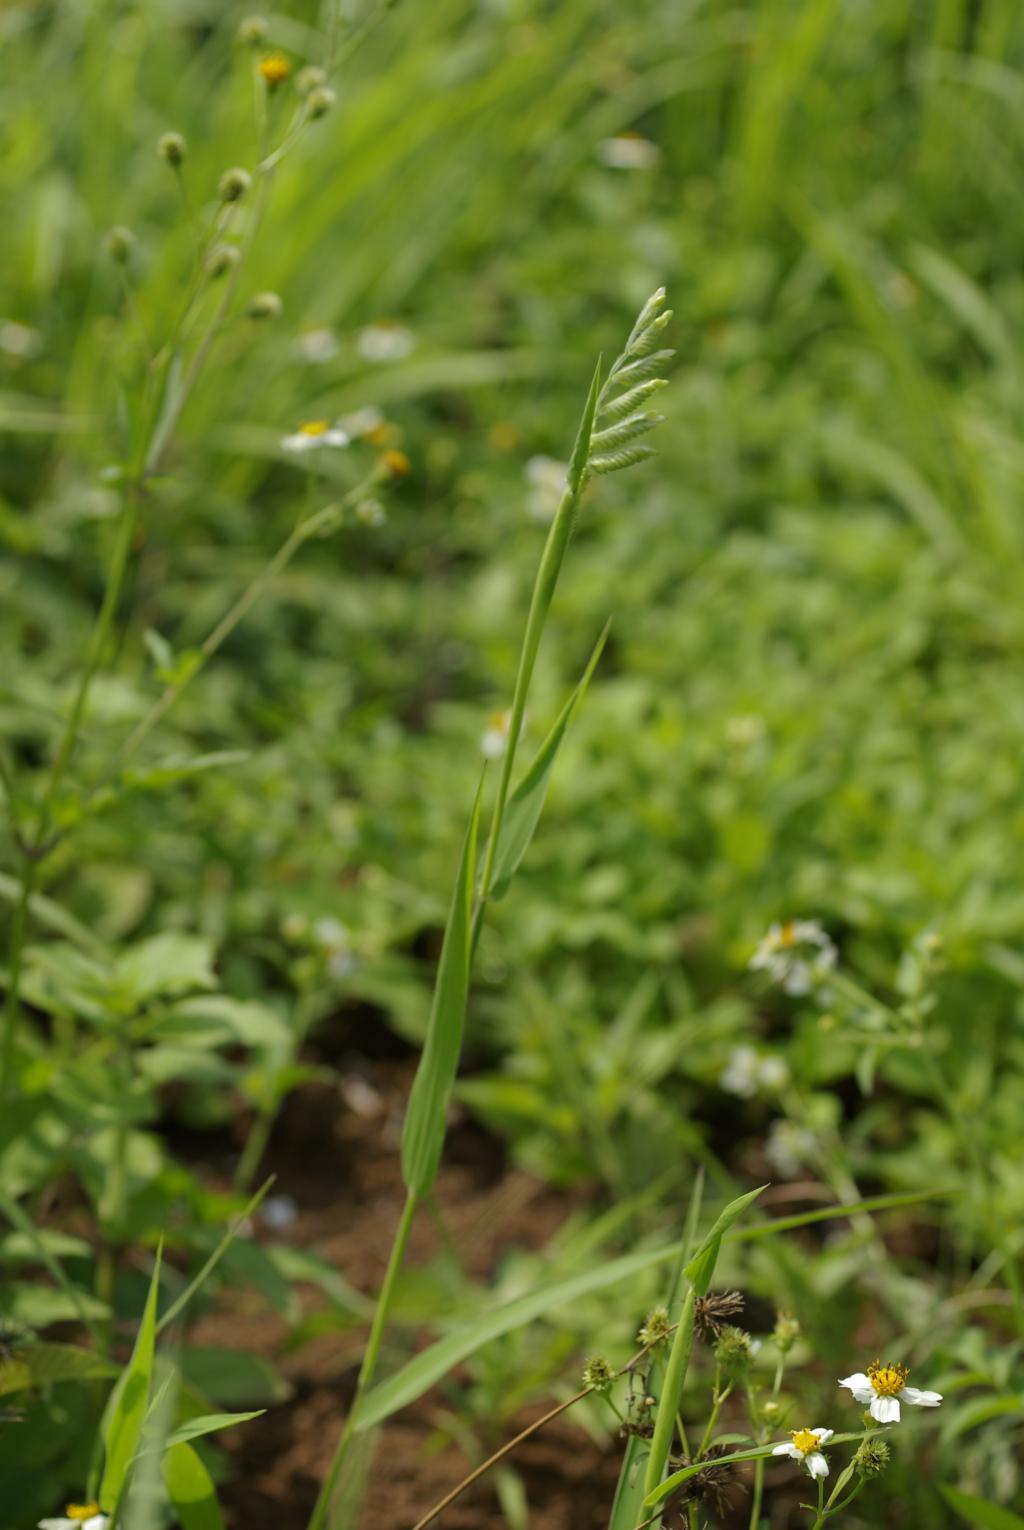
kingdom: Plantae
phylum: Tracheophyta
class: Liliopsida
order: Poales
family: Poaceae
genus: Eriochloa
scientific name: Eriochloa villosa
